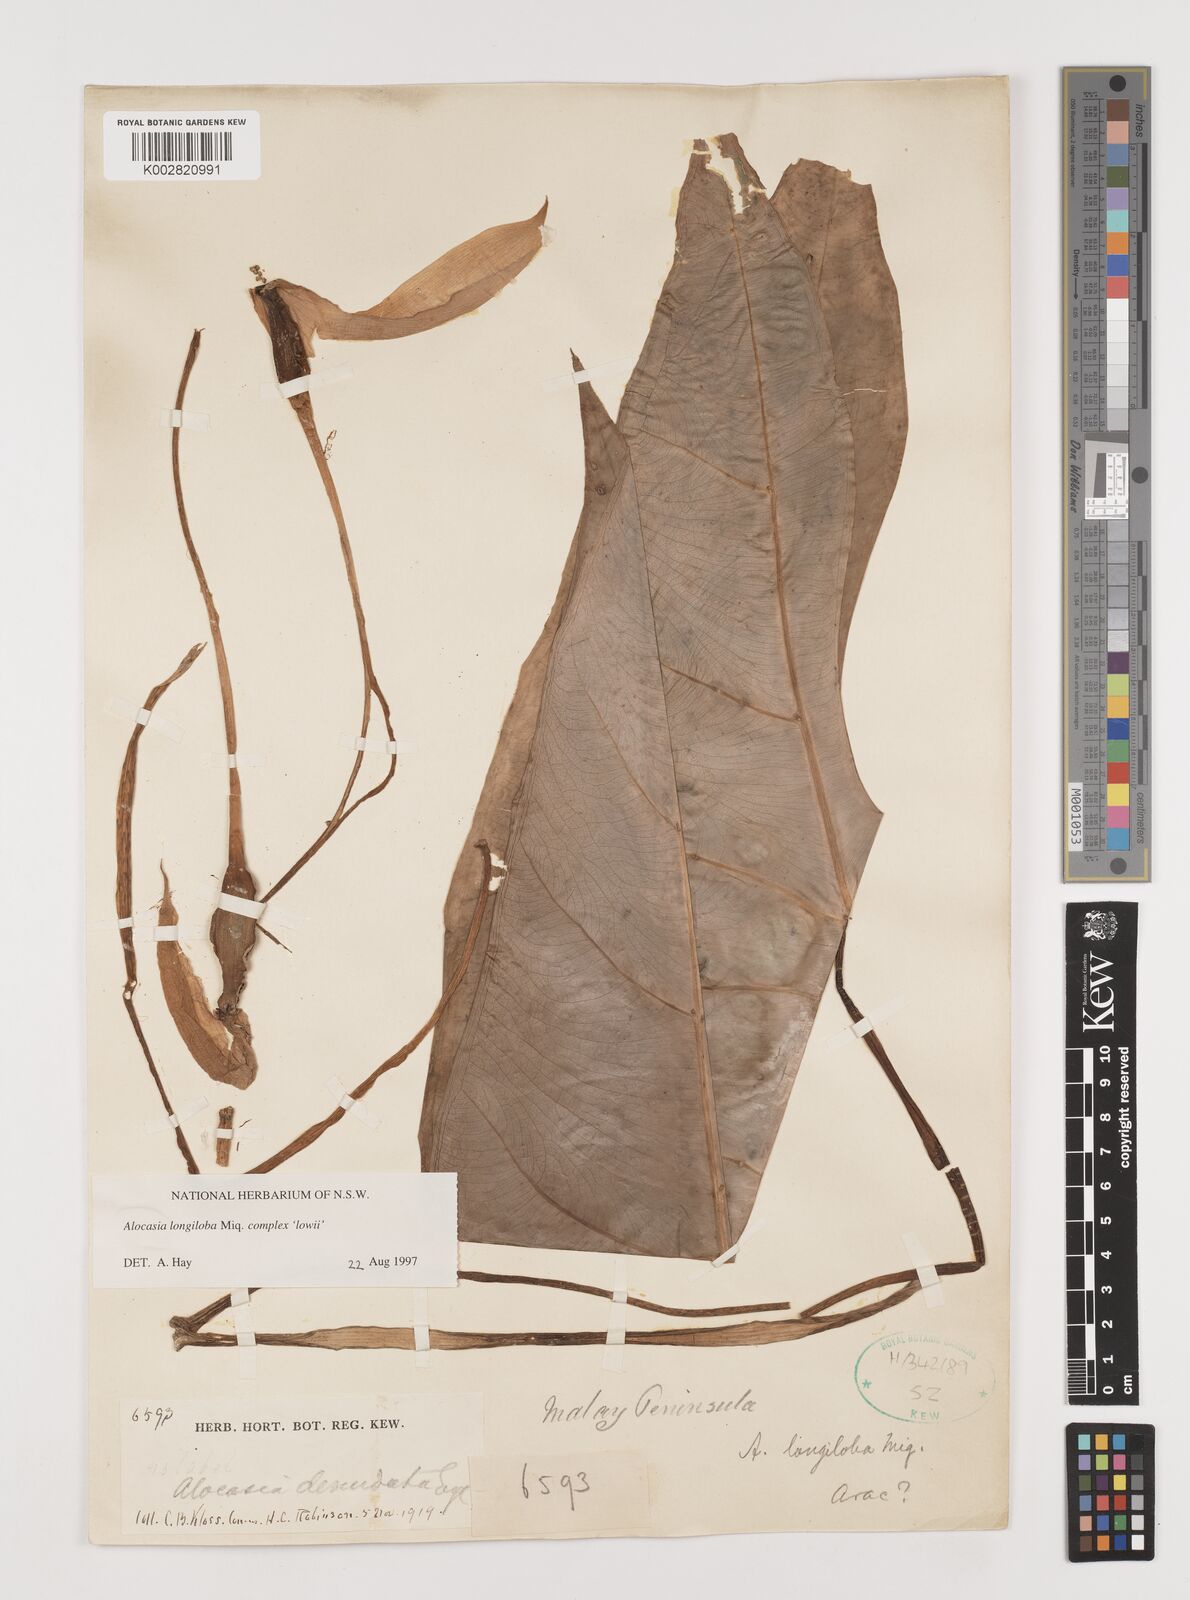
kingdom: Plantae
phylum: Tracheophyta
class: Liliopsida
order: Alismatales
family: Araceae
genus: Alocasia
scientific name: Alocasia longiloba
